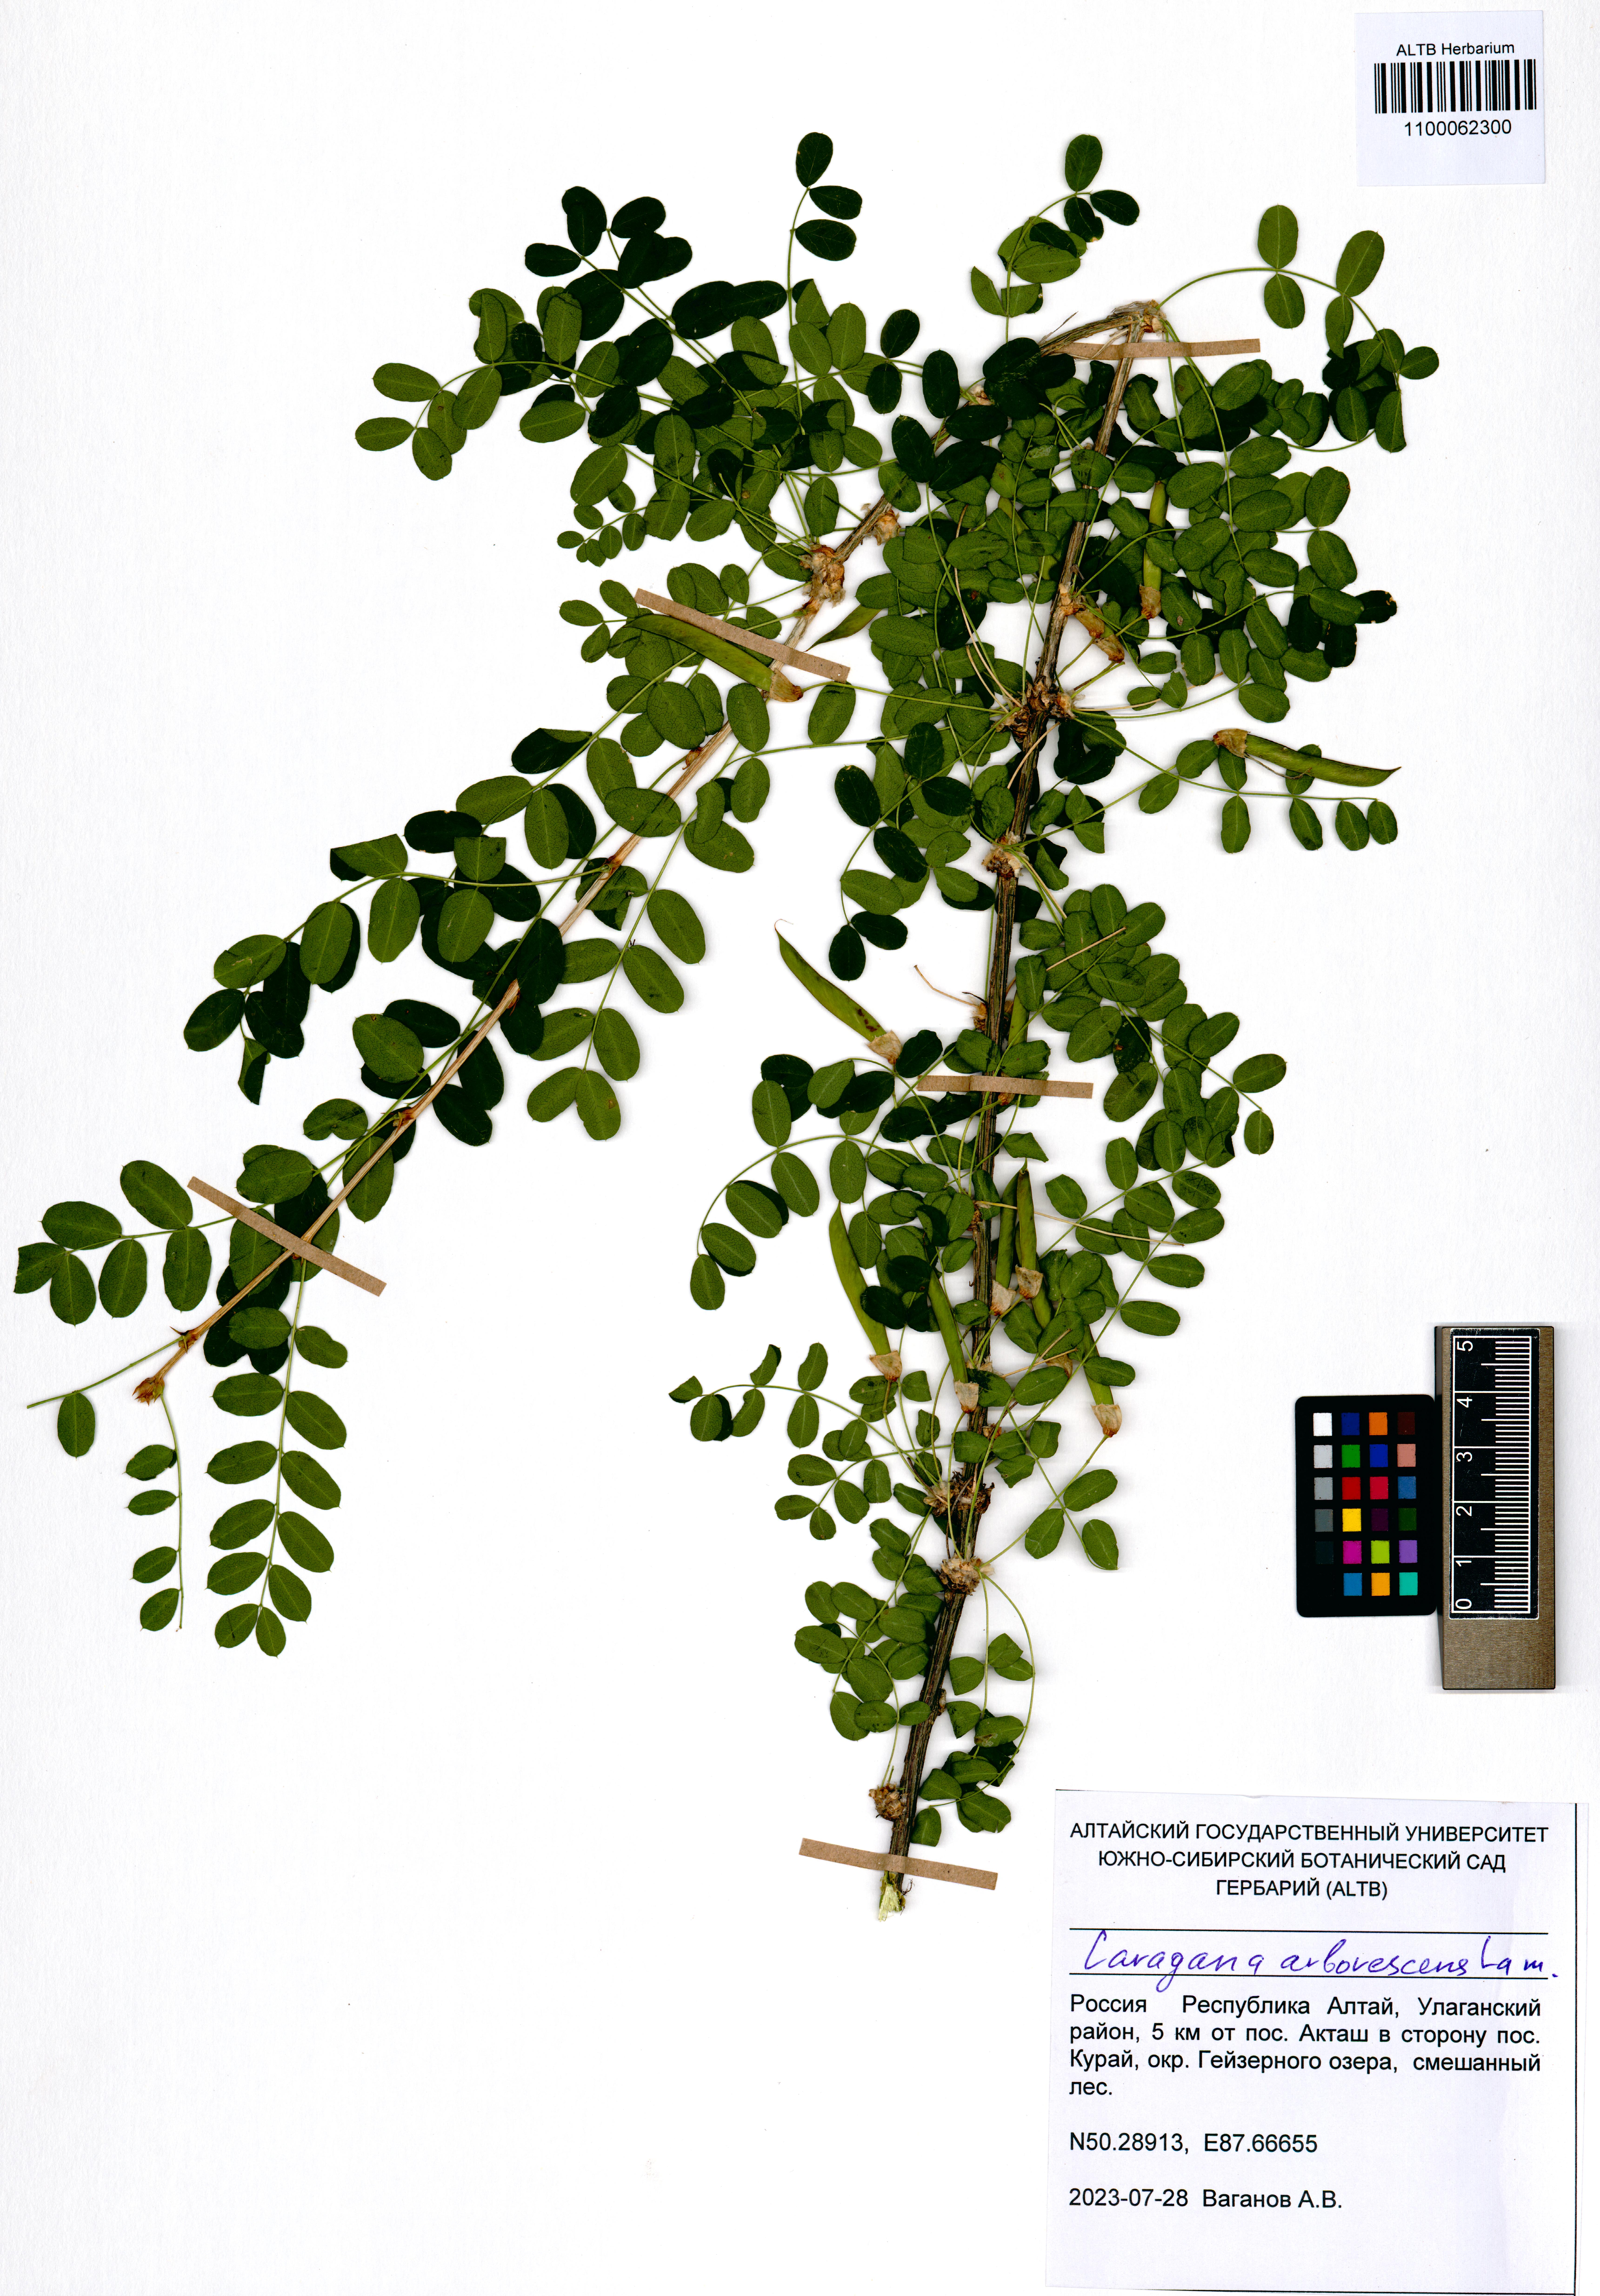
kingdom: Plantae
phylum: Tracheophyta
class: Magnoliopsida
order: Fabales
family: Fabaceae
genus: Caragana
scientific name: Caragana arborescens
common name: Siberian peashrub
